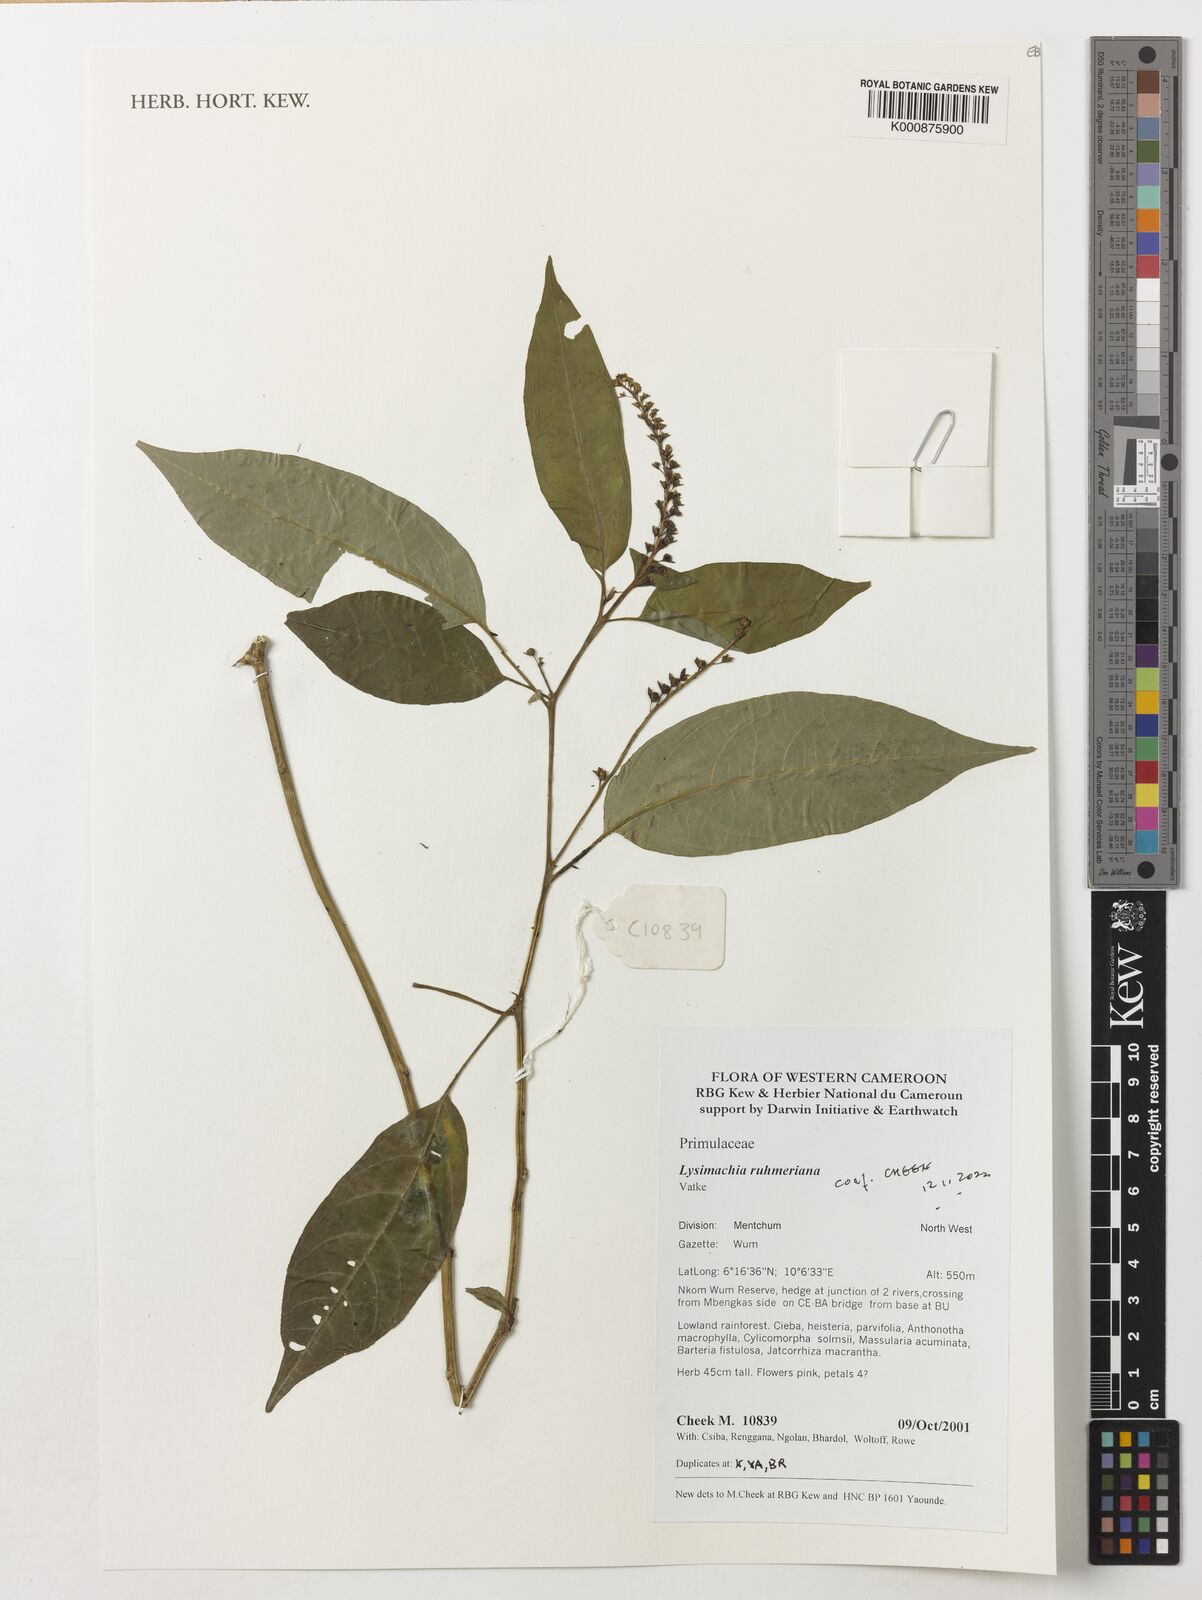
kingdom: Plantae
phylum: Tracheophyta
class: Magnoliopsida
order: Ericales
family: Primulaceae
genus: Lysimachia
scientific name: Lysimachia ruhmeriana
